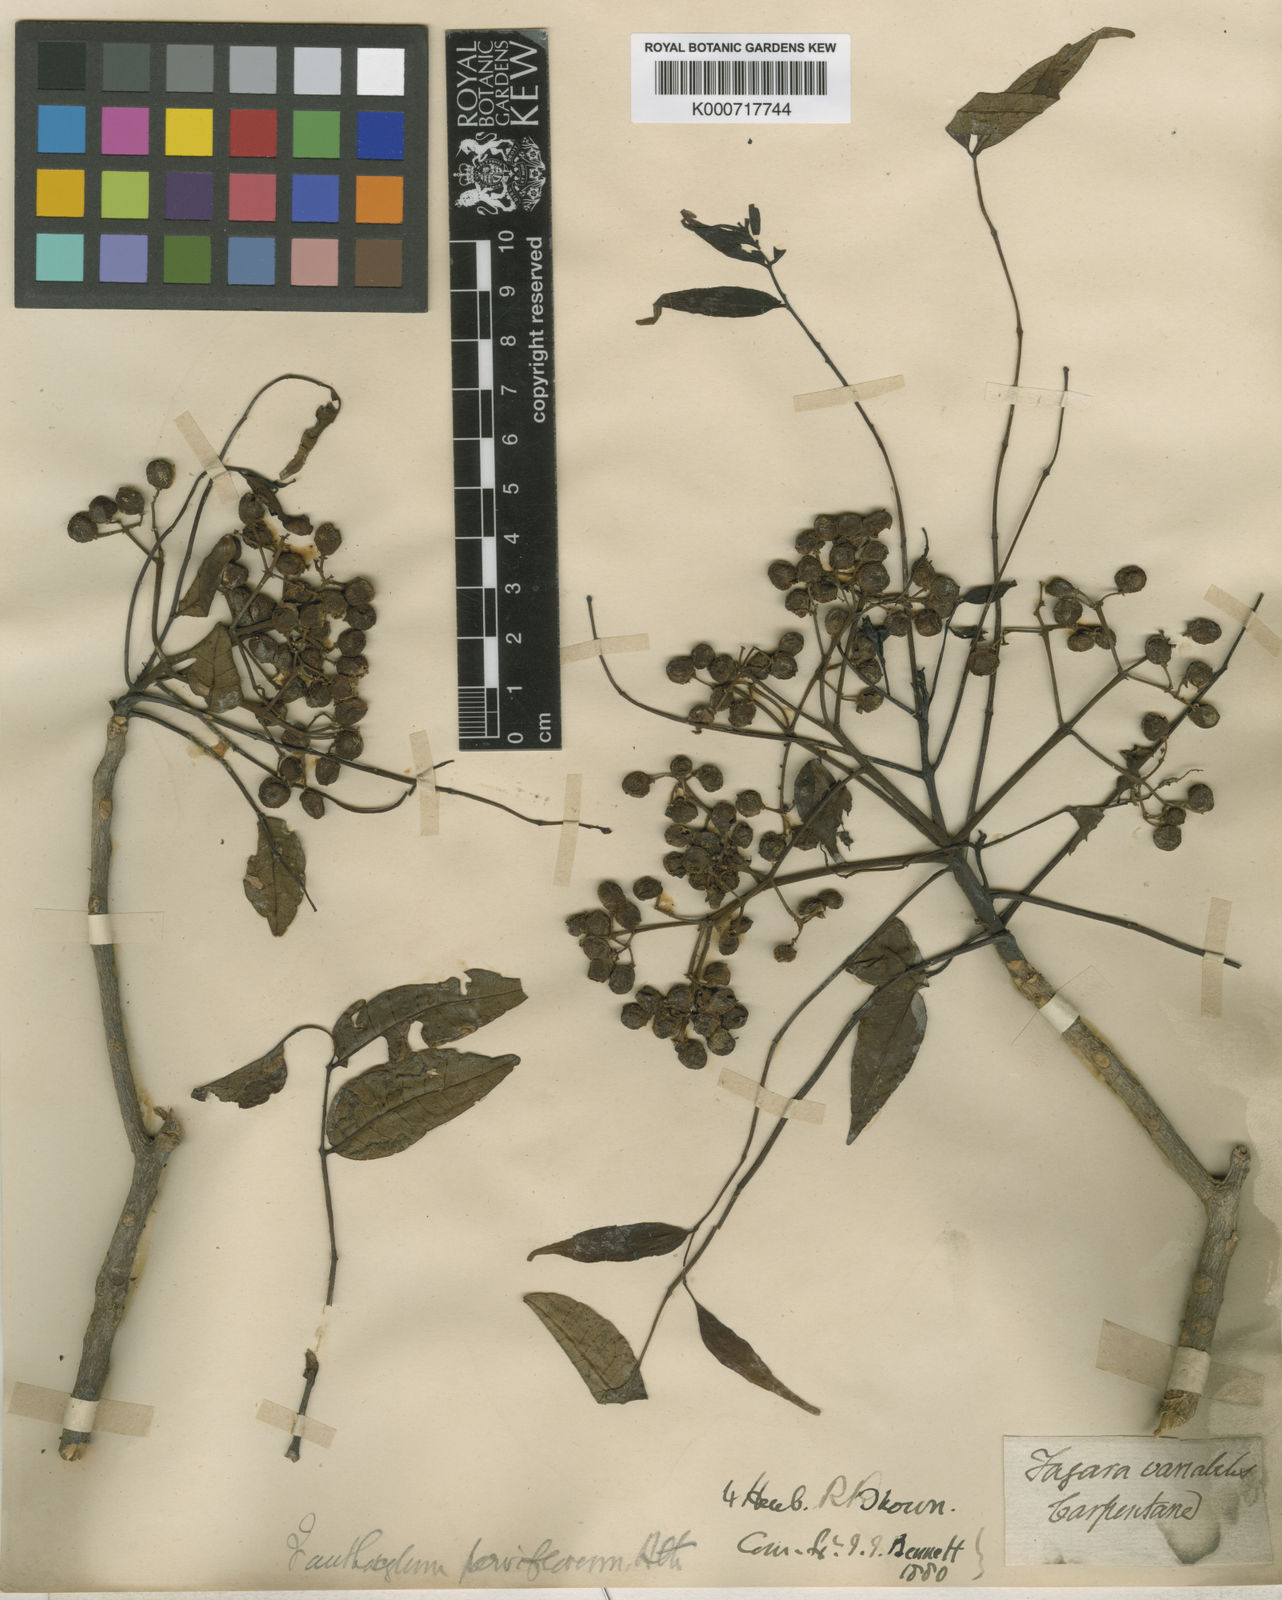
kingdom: Plantae
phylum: Tracheophyta
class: Magnoliopsida
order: Sapindales
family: Rutaceae
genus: Zanthoxylum
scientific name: Zanthoxylum rhetsa
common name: Indian ivy-rue
